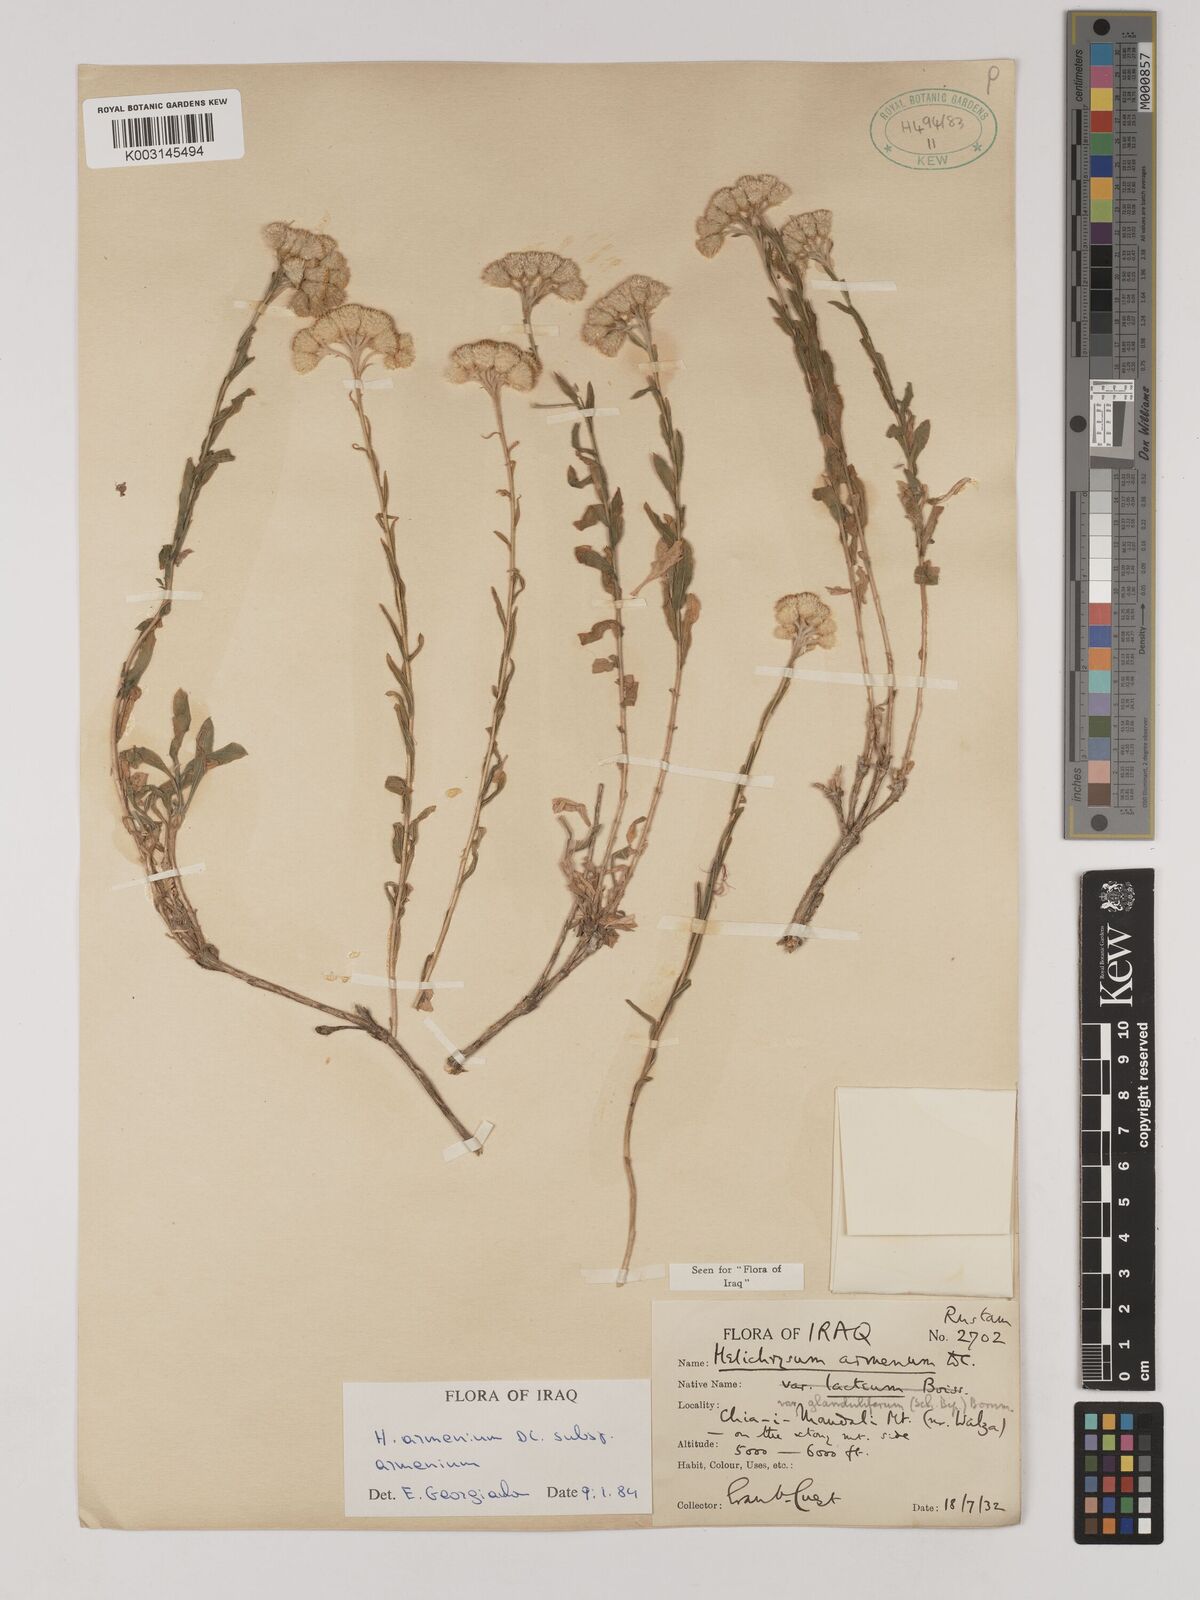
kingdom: Plantae
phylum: Tracheophyta
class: Magnoliopsida
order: Asterales
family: Asteraceae
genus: Helichrysum
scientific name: Helichrysum armenium
